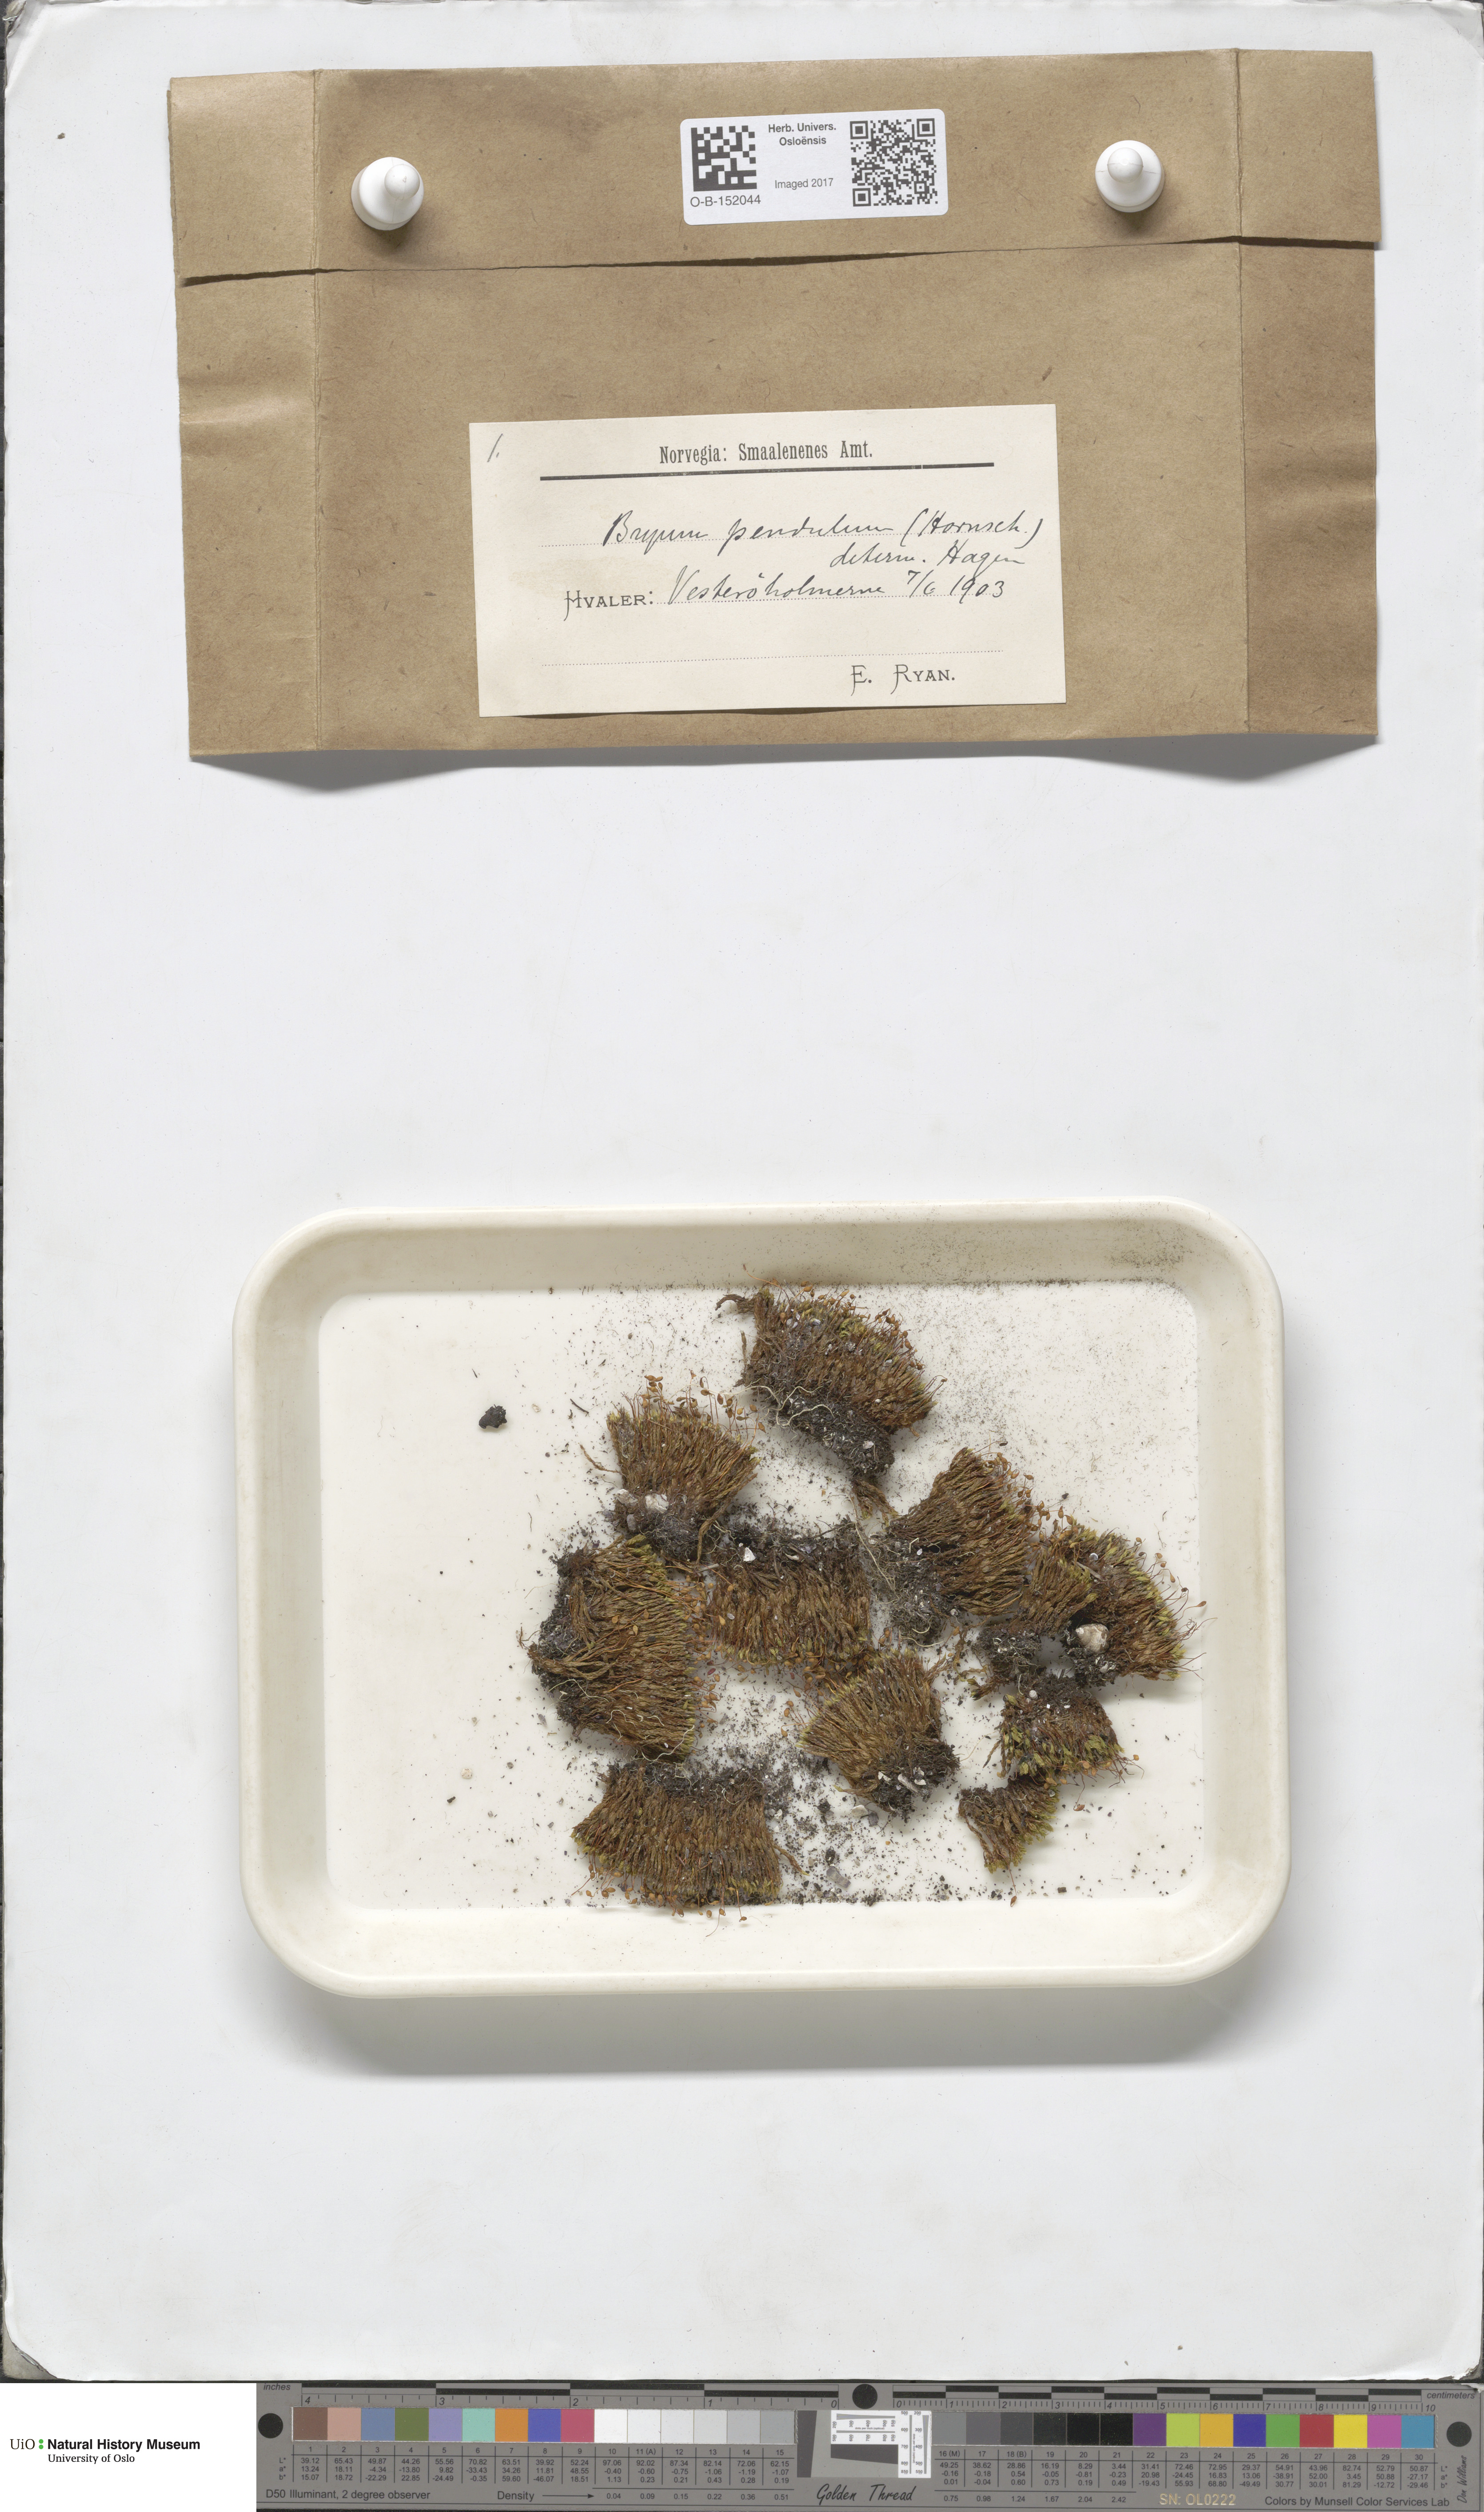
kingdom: Plantae
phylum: Bryophyta
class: Bryopsida
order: Bryales
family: Bryaceae
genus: Ptychostomum
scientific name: Ptychostomum compactum
